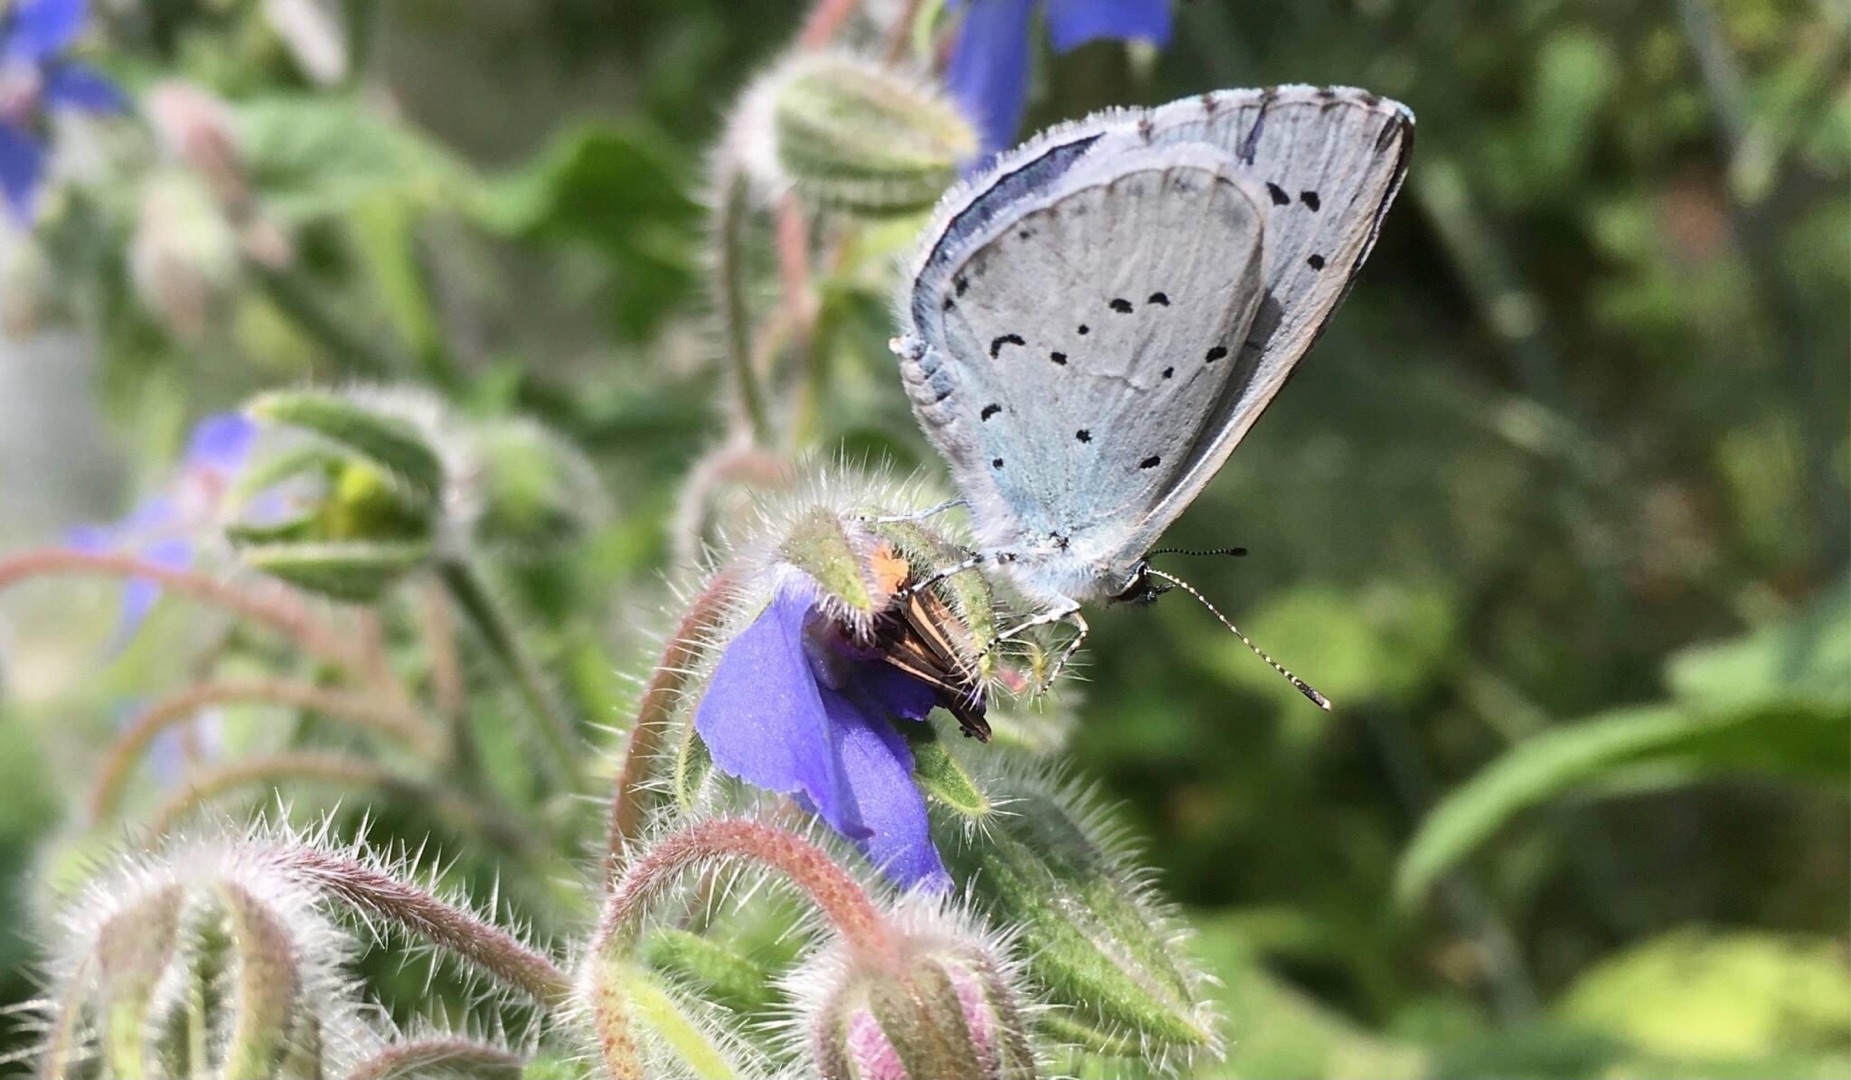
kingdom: Animalia
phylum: Arthropoda
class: Insecta
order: Lepidoptera
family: Lycaenidae
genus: Celastrina
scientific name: Celastrina argiolus
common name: Skovblåfugl
